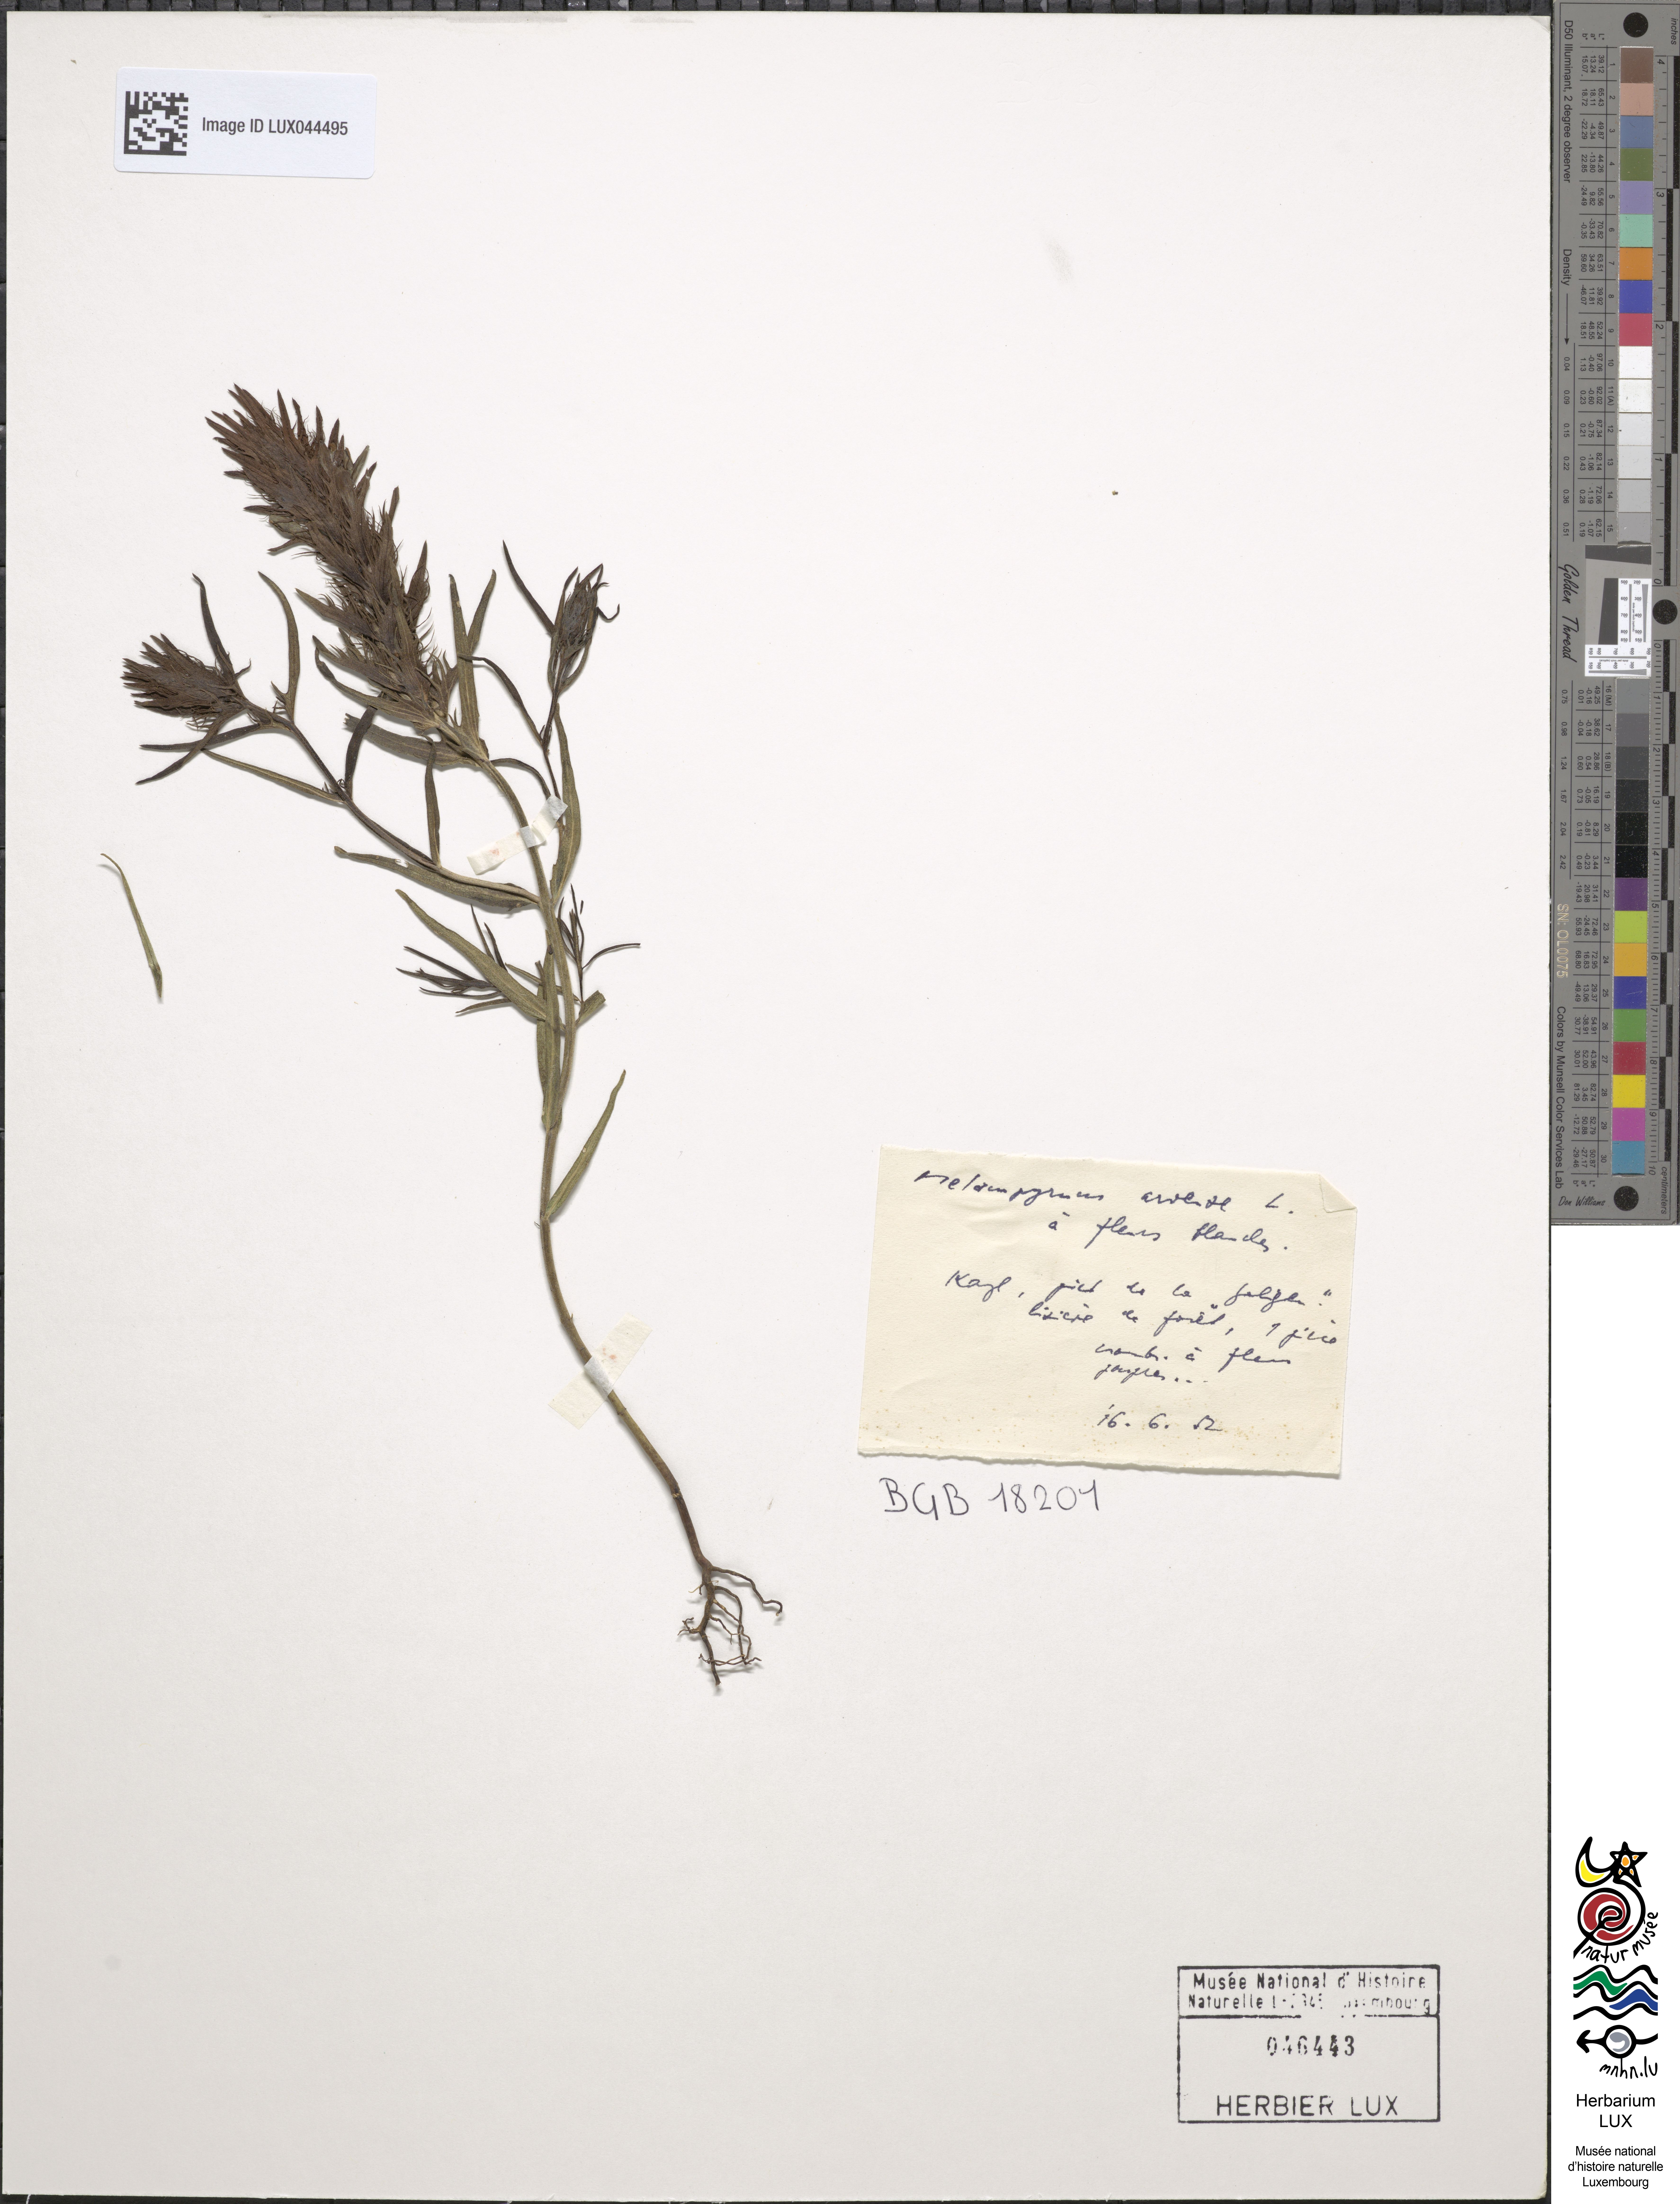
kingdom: Plantae
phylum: Tracheophyta
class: Magnoliopsida
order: Lamiales
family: Orobanchaceae
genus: Melampyrum
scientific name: Melampyrum arvense
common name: Field cow-wheat
